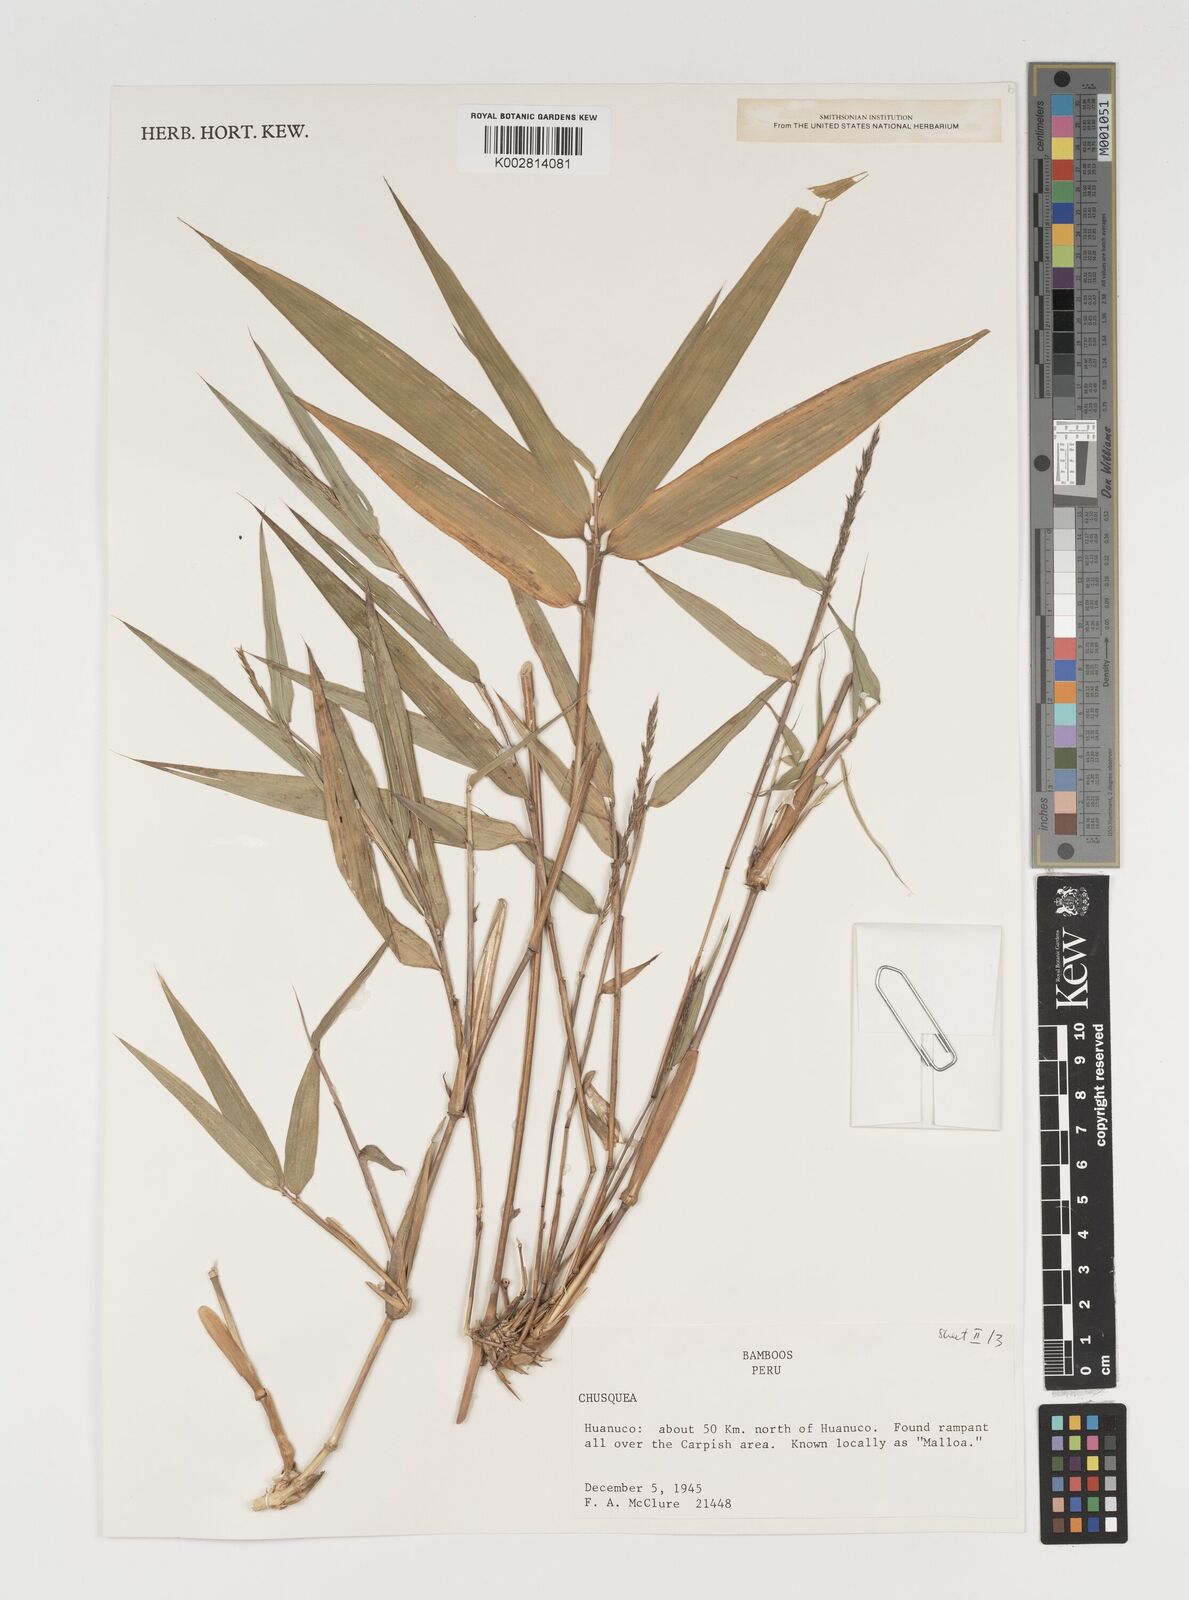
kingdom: Plantae
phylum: Tracheophyta
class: Liliopsida
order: Poales
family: Poaceae
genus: Chusquea
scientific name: Chusquea
